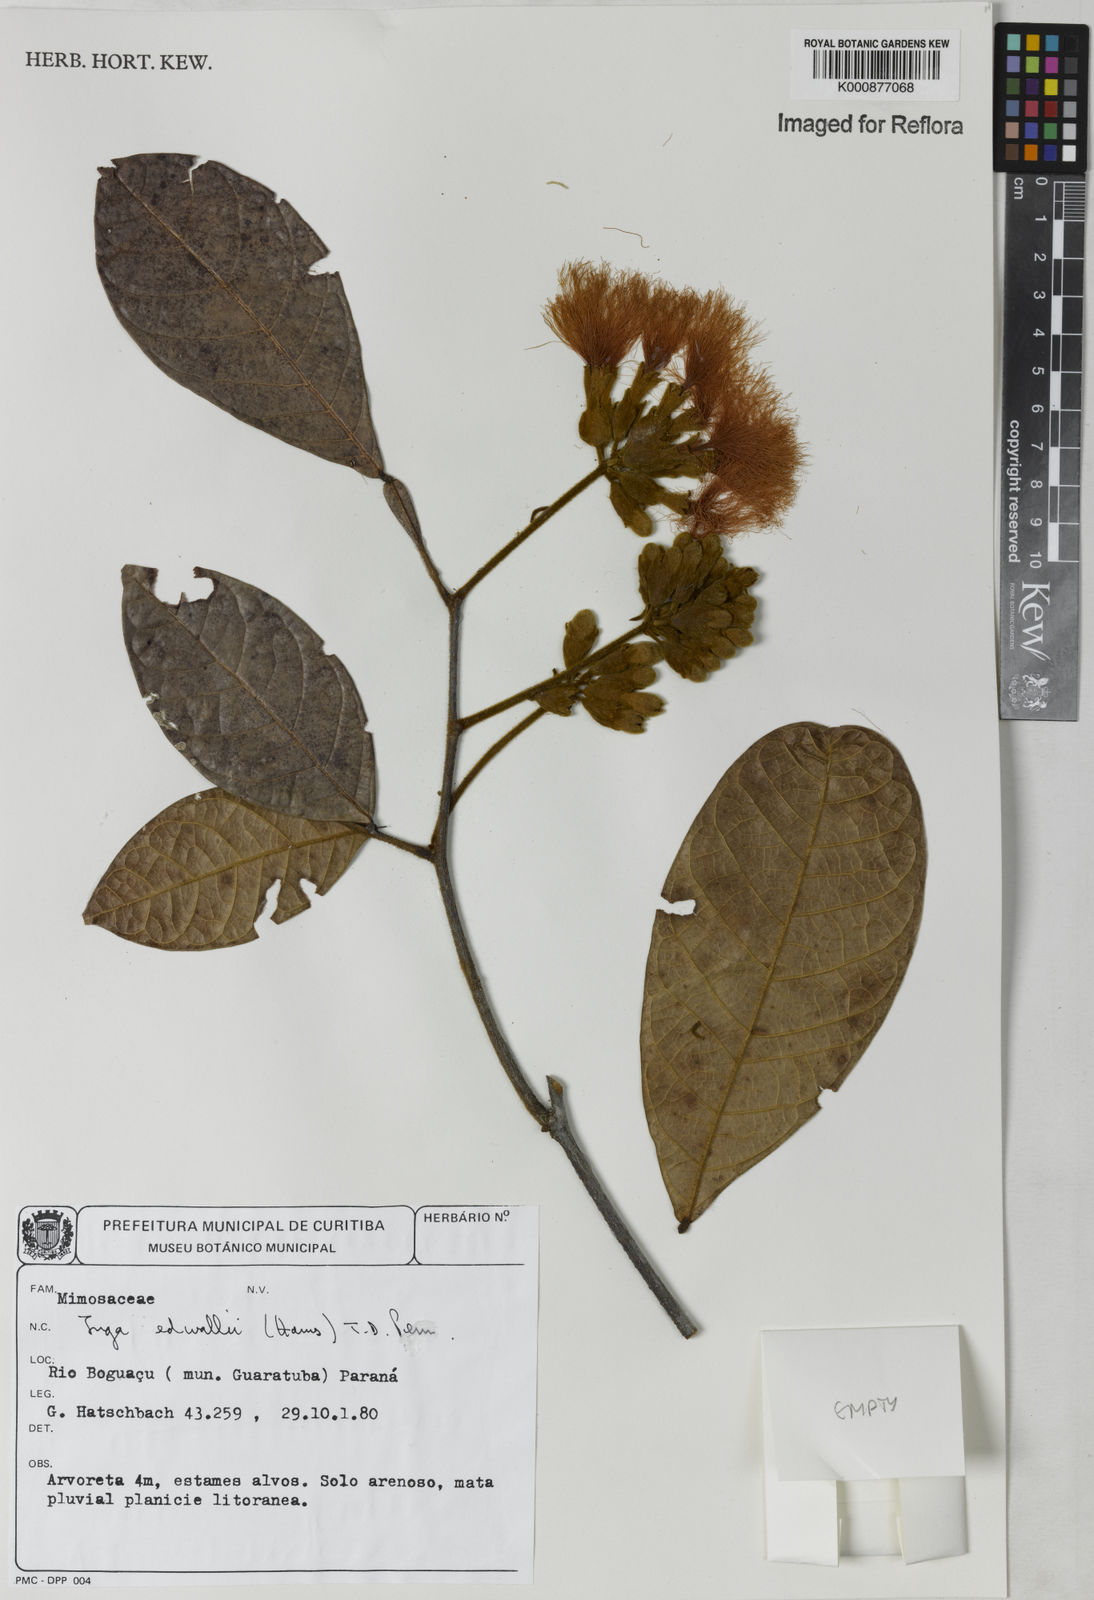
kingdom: Plantae
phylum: Tracheophyta
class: Magnoliopsida
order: Fabales
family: Fabaceae
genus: Inga
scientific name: Inga edwallii
